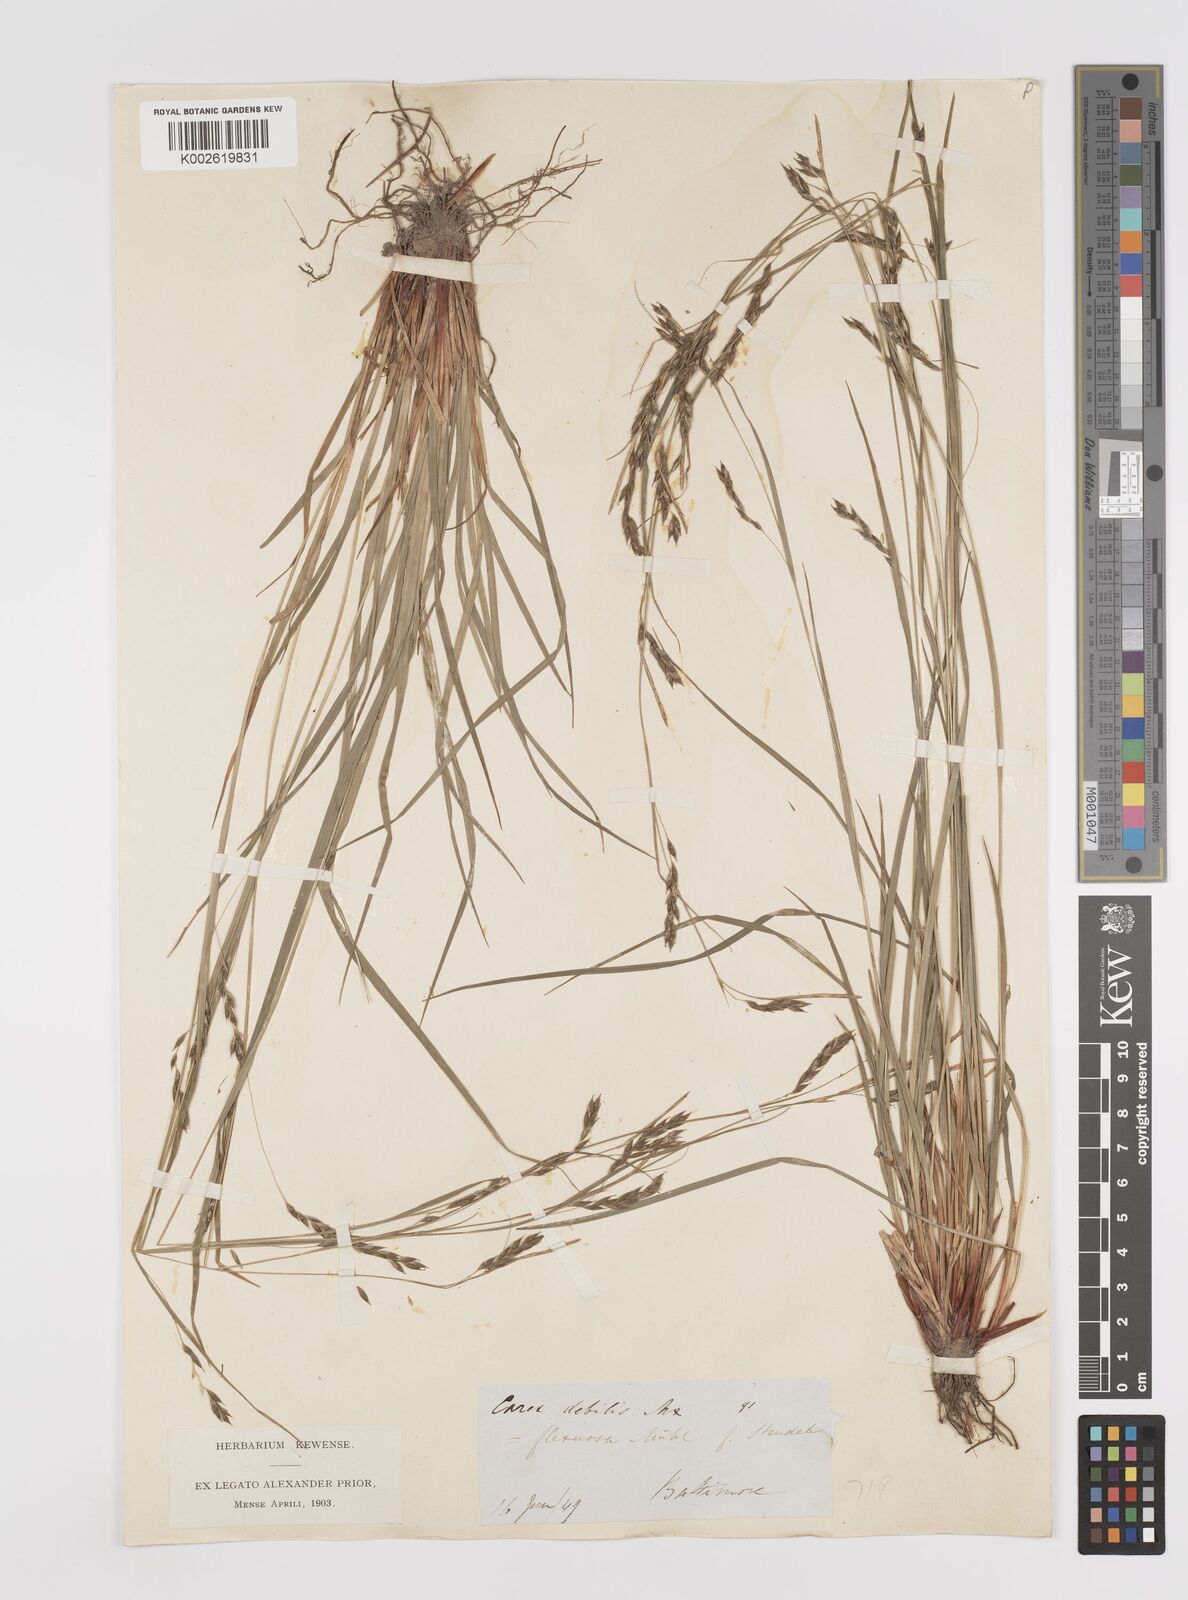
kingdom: Plantae
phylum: Tracheophyta
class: Liliopsida
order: Poales
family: Cyperaceae
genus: Carex
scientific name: Carex debilis
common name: White-edge sedge
